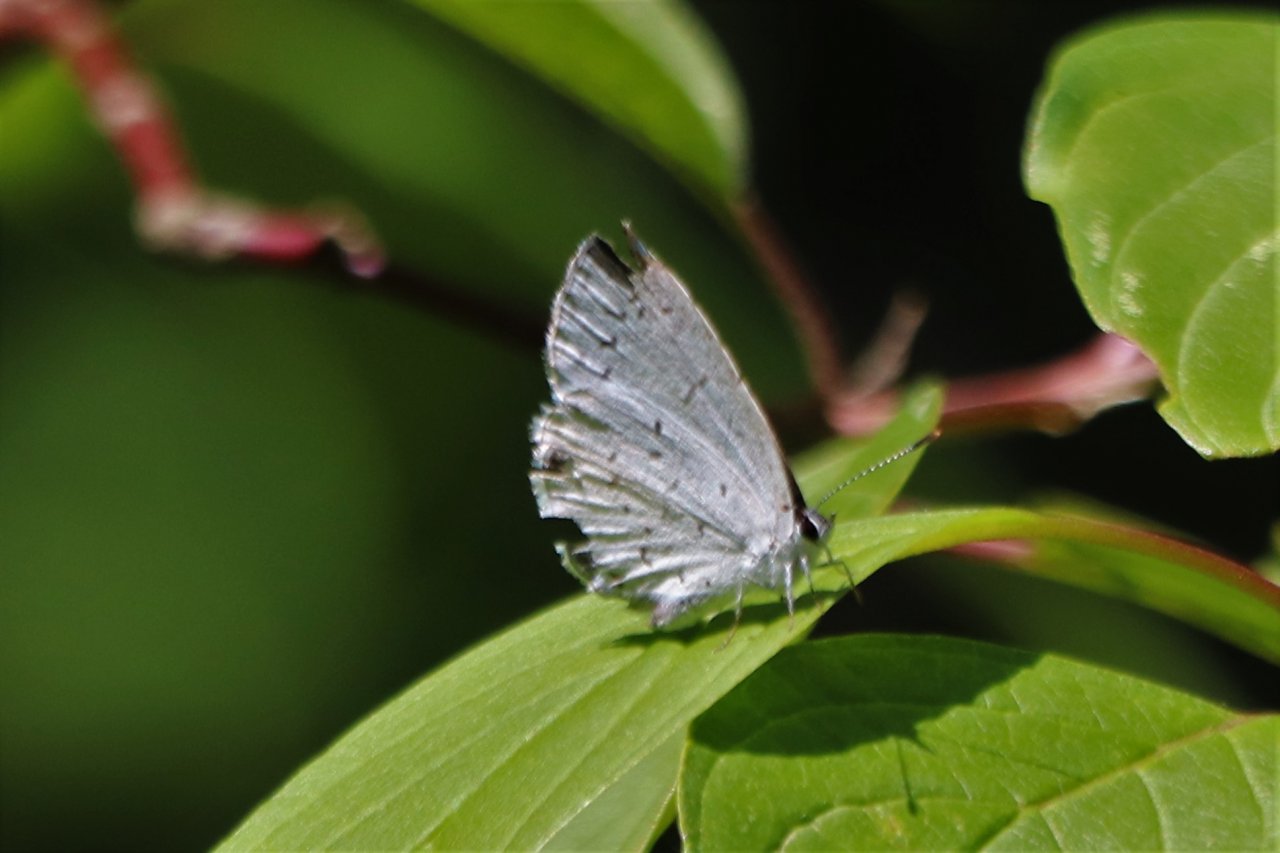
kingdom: Animalia
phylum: Arthropoda
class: Insecta
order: Lepidoptera
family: Lycaenidae
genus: Cyaniris
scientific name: Cyaniris neglecta
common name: Summer Azure
